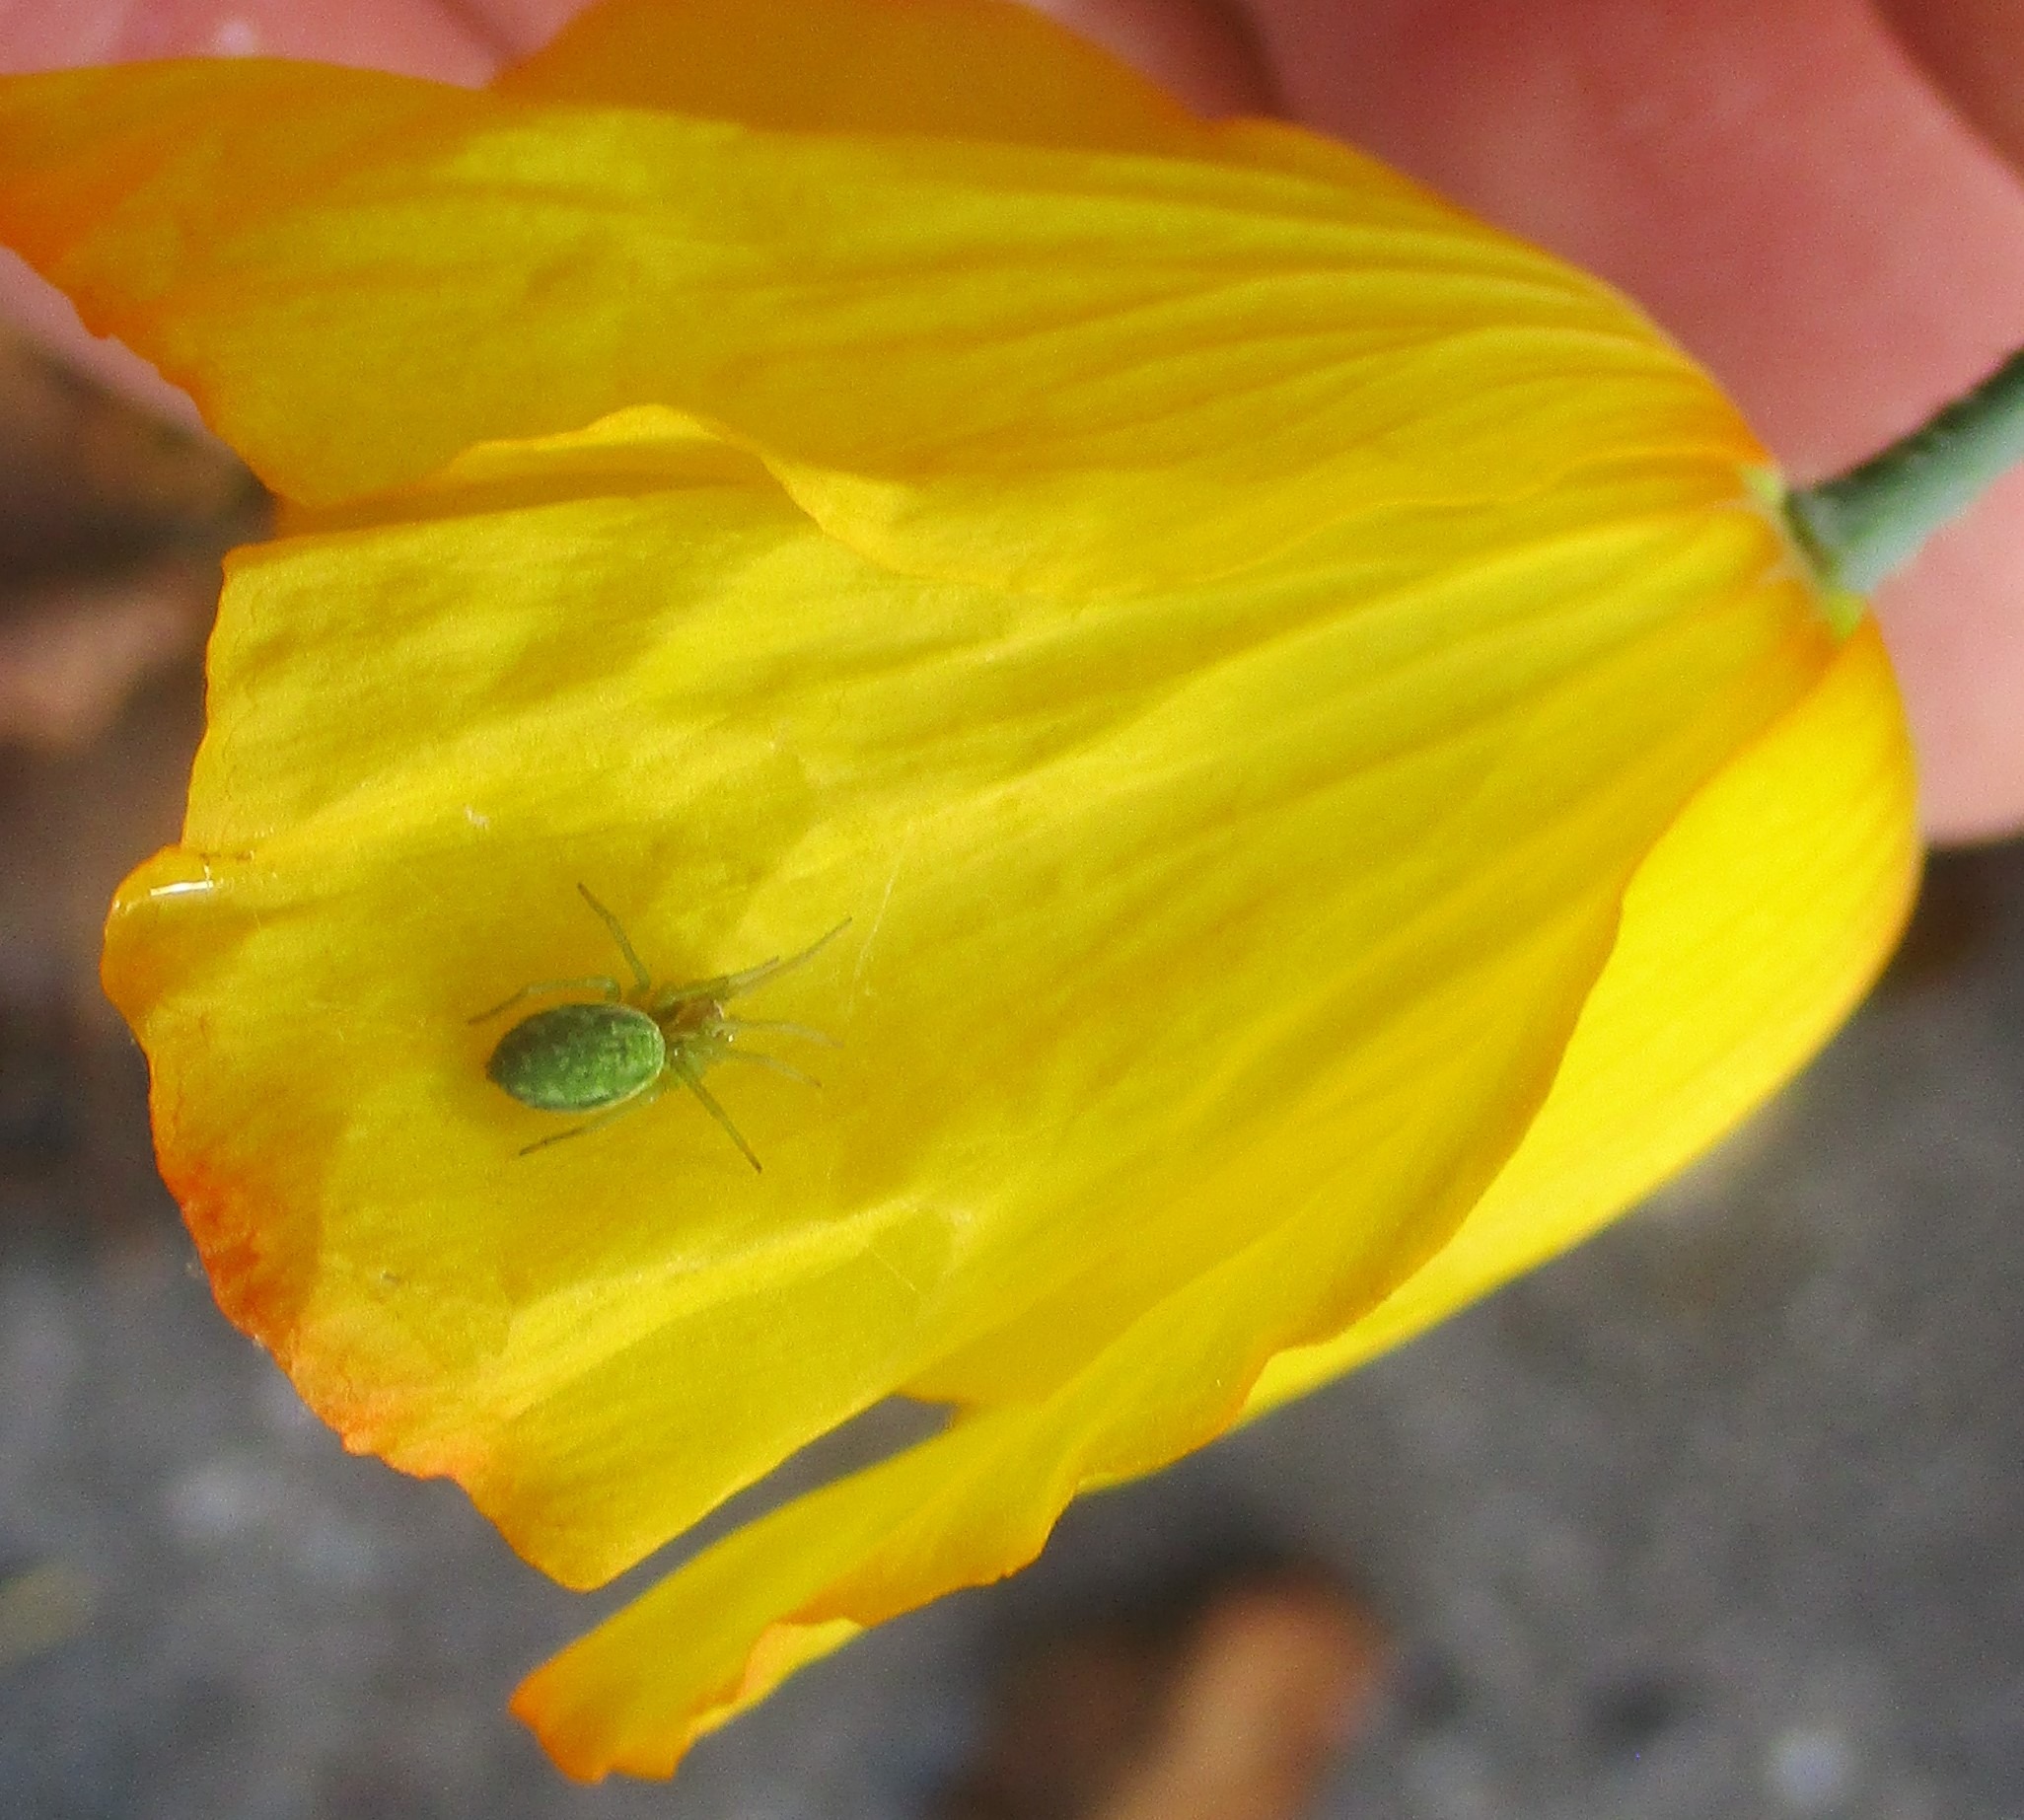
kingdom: Animalia
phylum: Arthropoda
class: Arachnida
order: Araneae
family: Dictynidae
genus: Nigma
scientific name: Nigma walckenaeri
